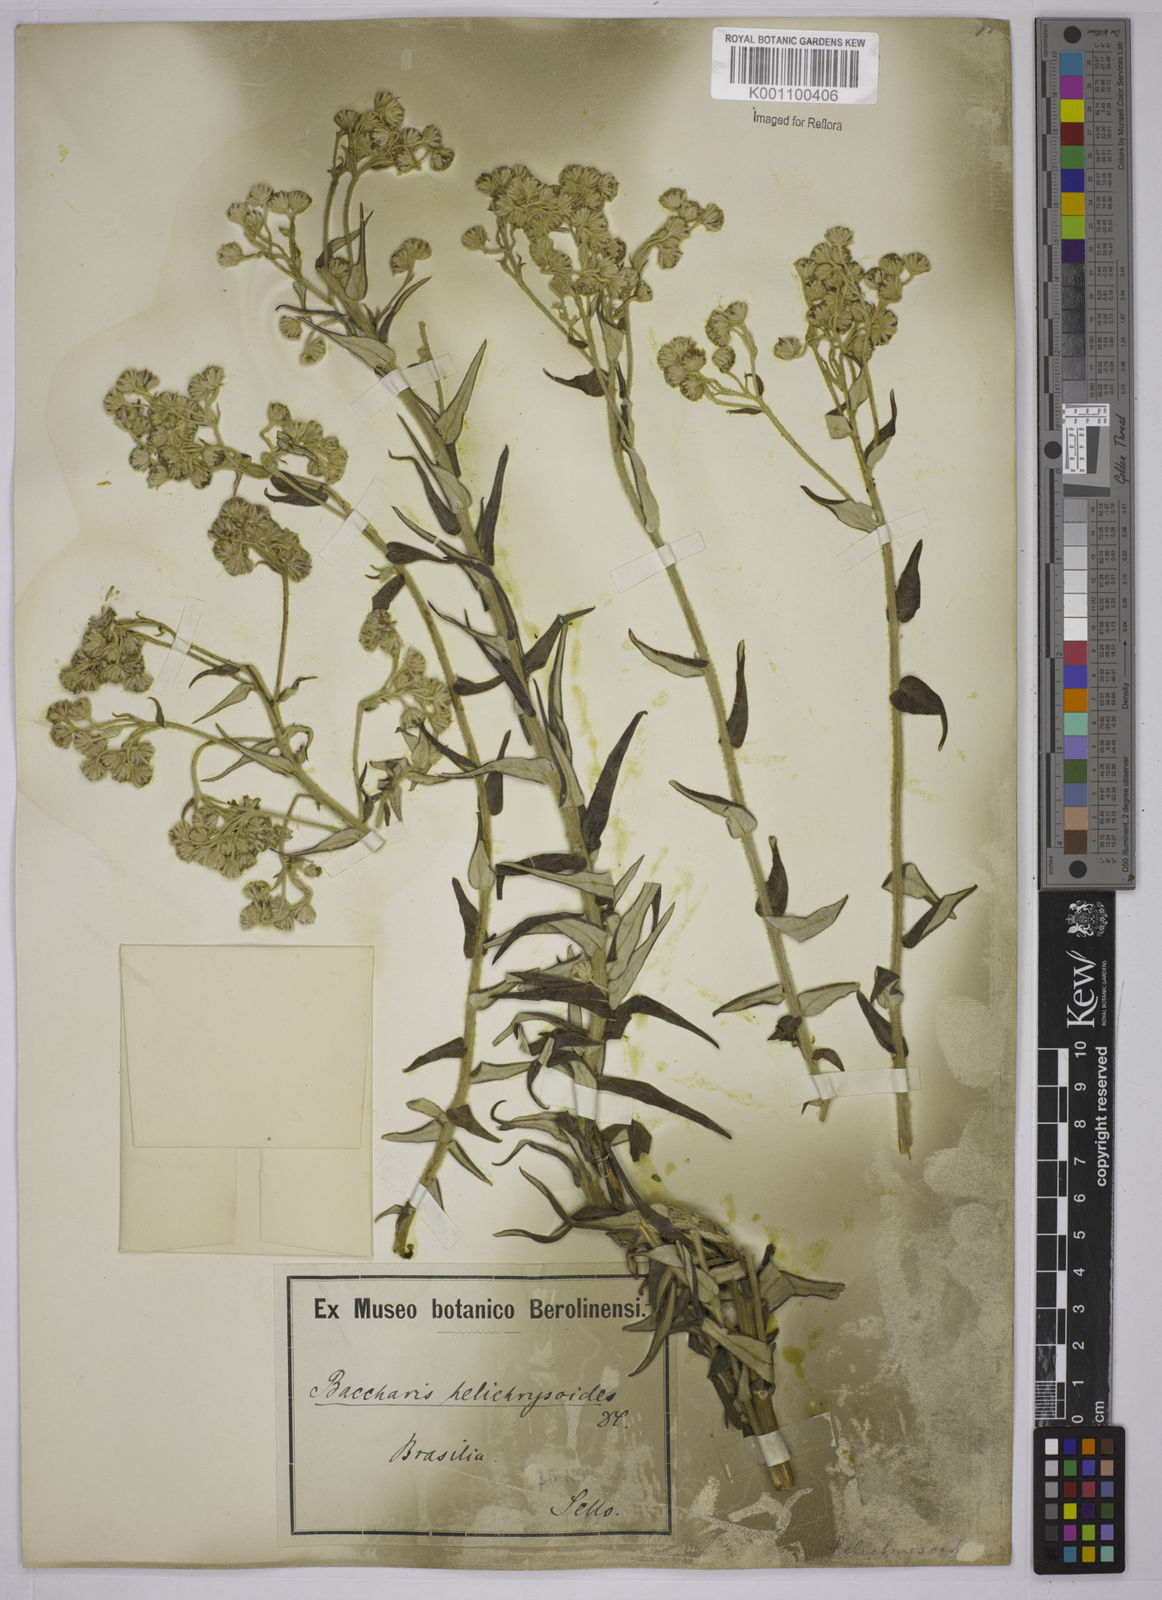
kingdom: Plantae
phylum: Tracheophyta
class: Magnoliopsida
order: Asterales
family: Asteraceae
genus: Baccharis
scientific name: Baccharis helichrysoides
